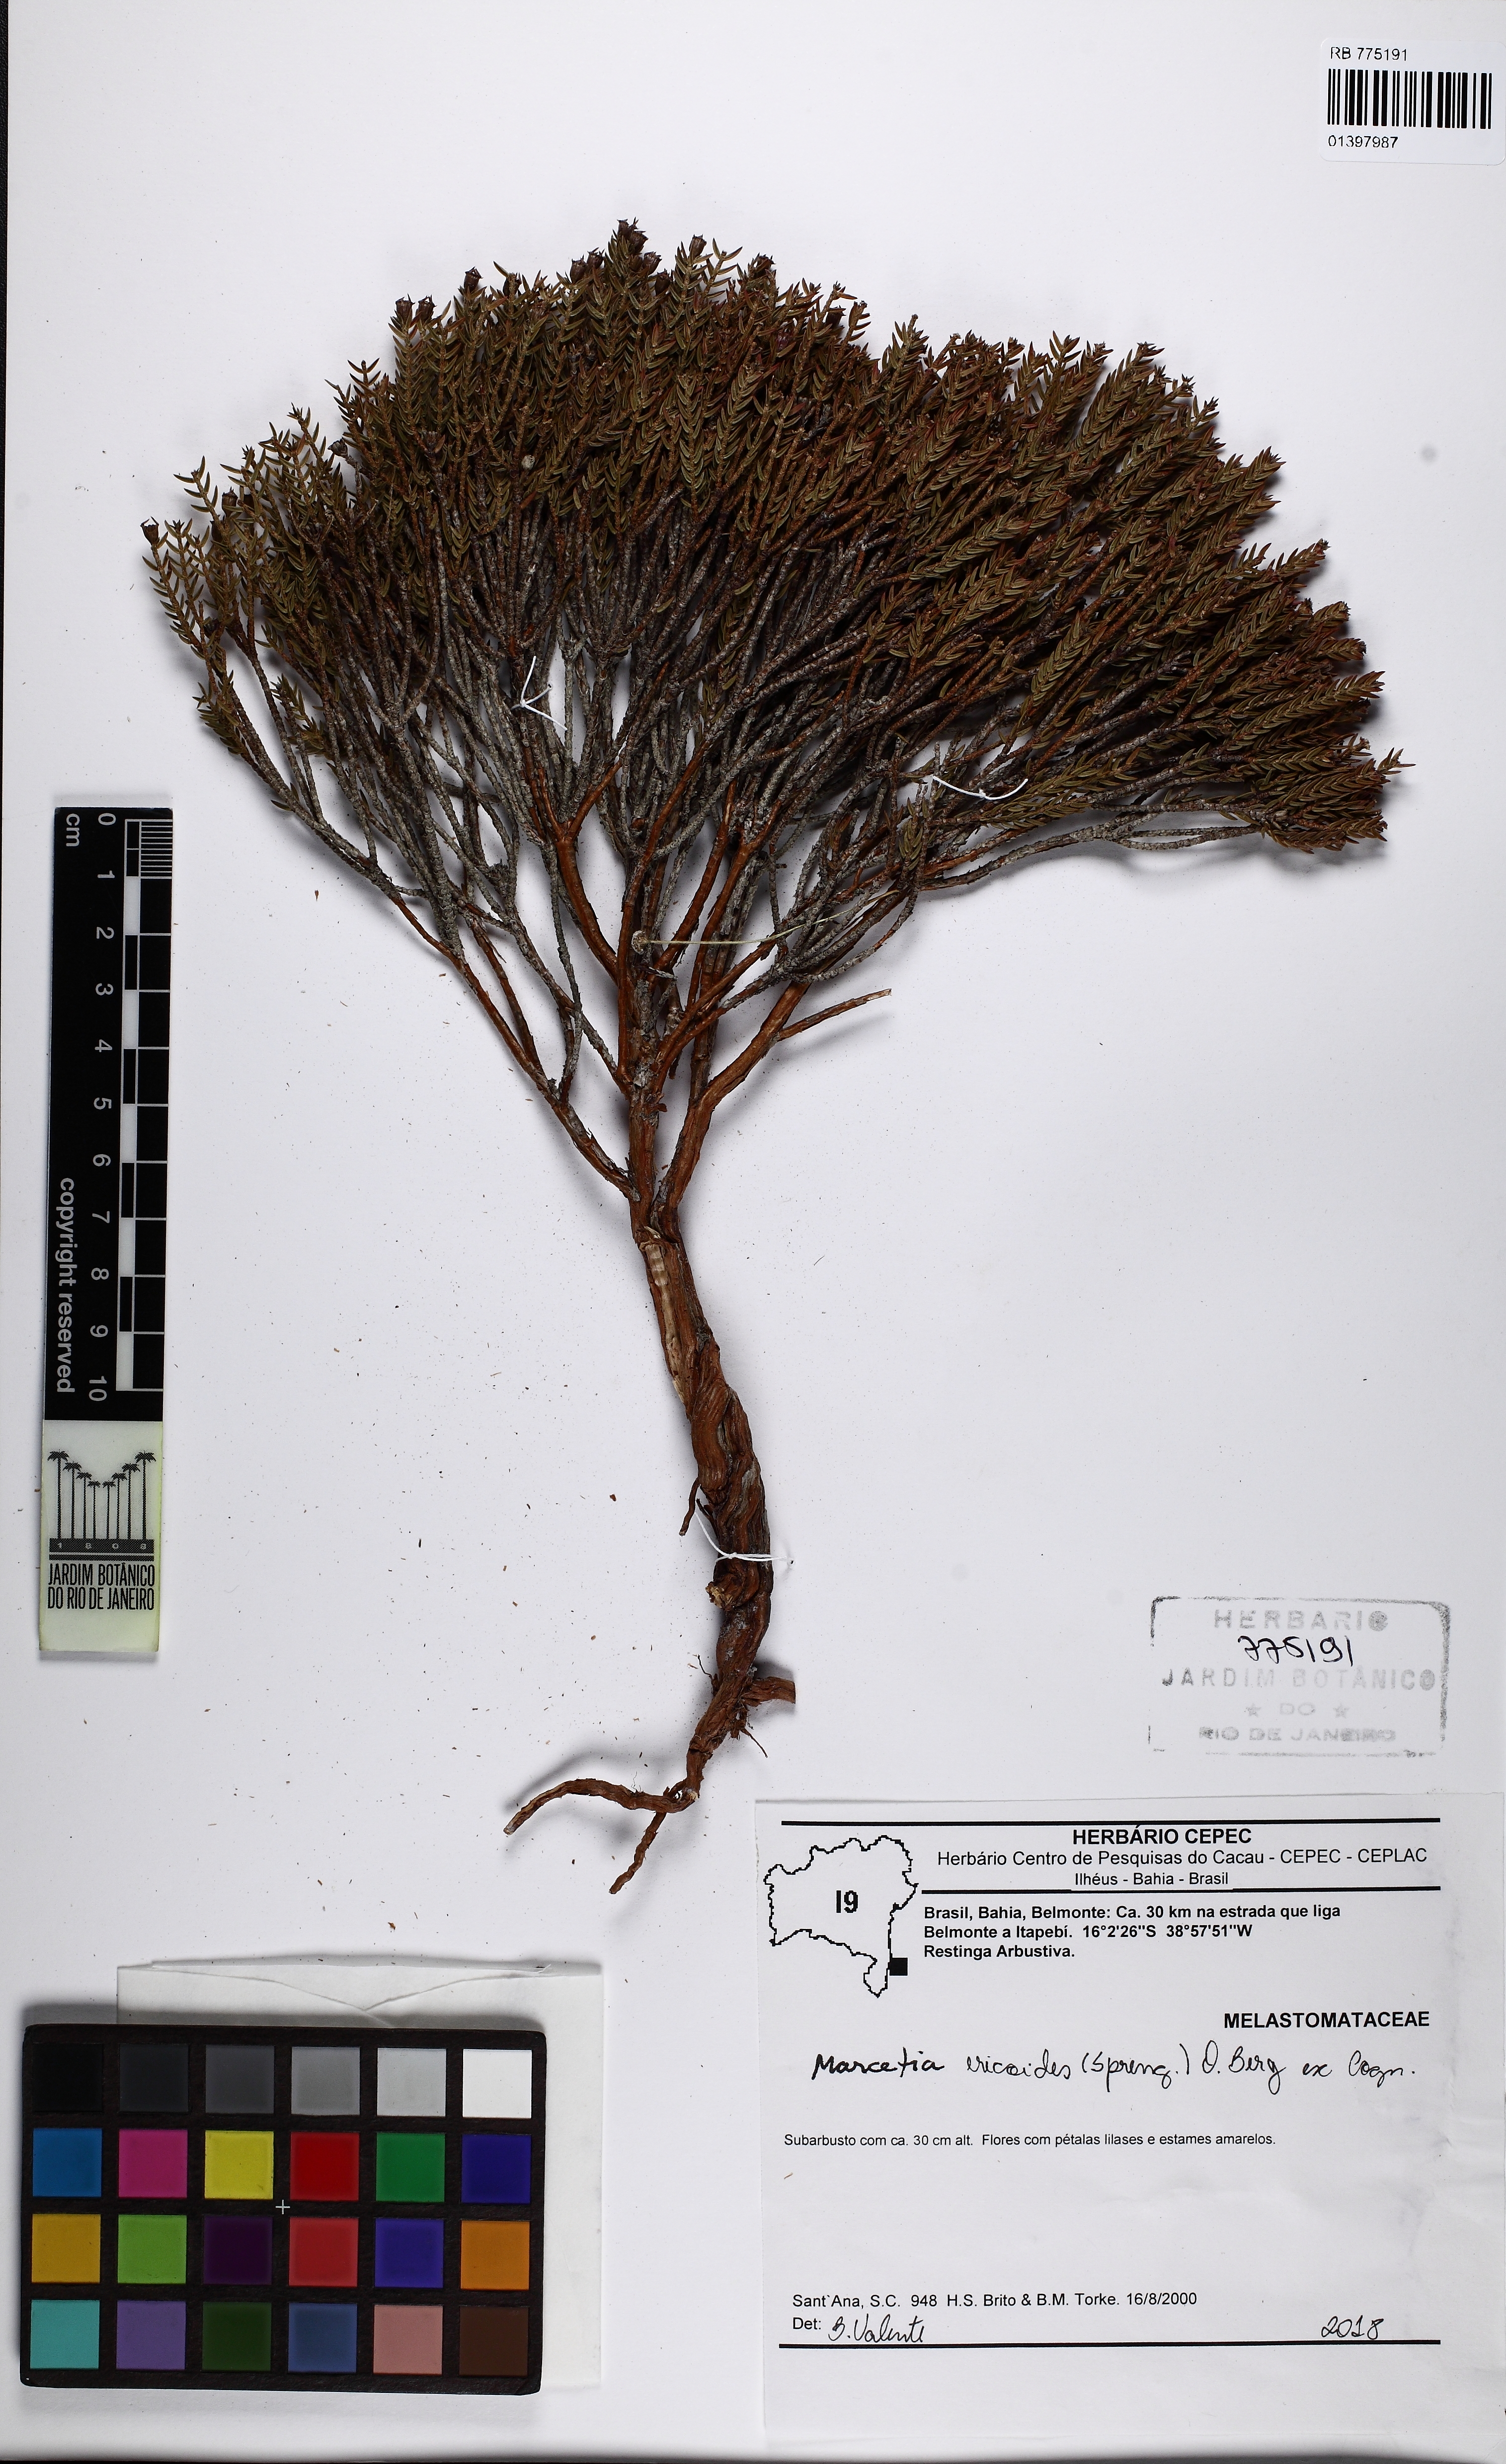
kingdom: Plantae
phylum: Tracheophyta
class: Magnoliopsida
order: Myrtales
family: Melastomataceae
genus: Marcetia
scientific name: Marcetia ericoides
